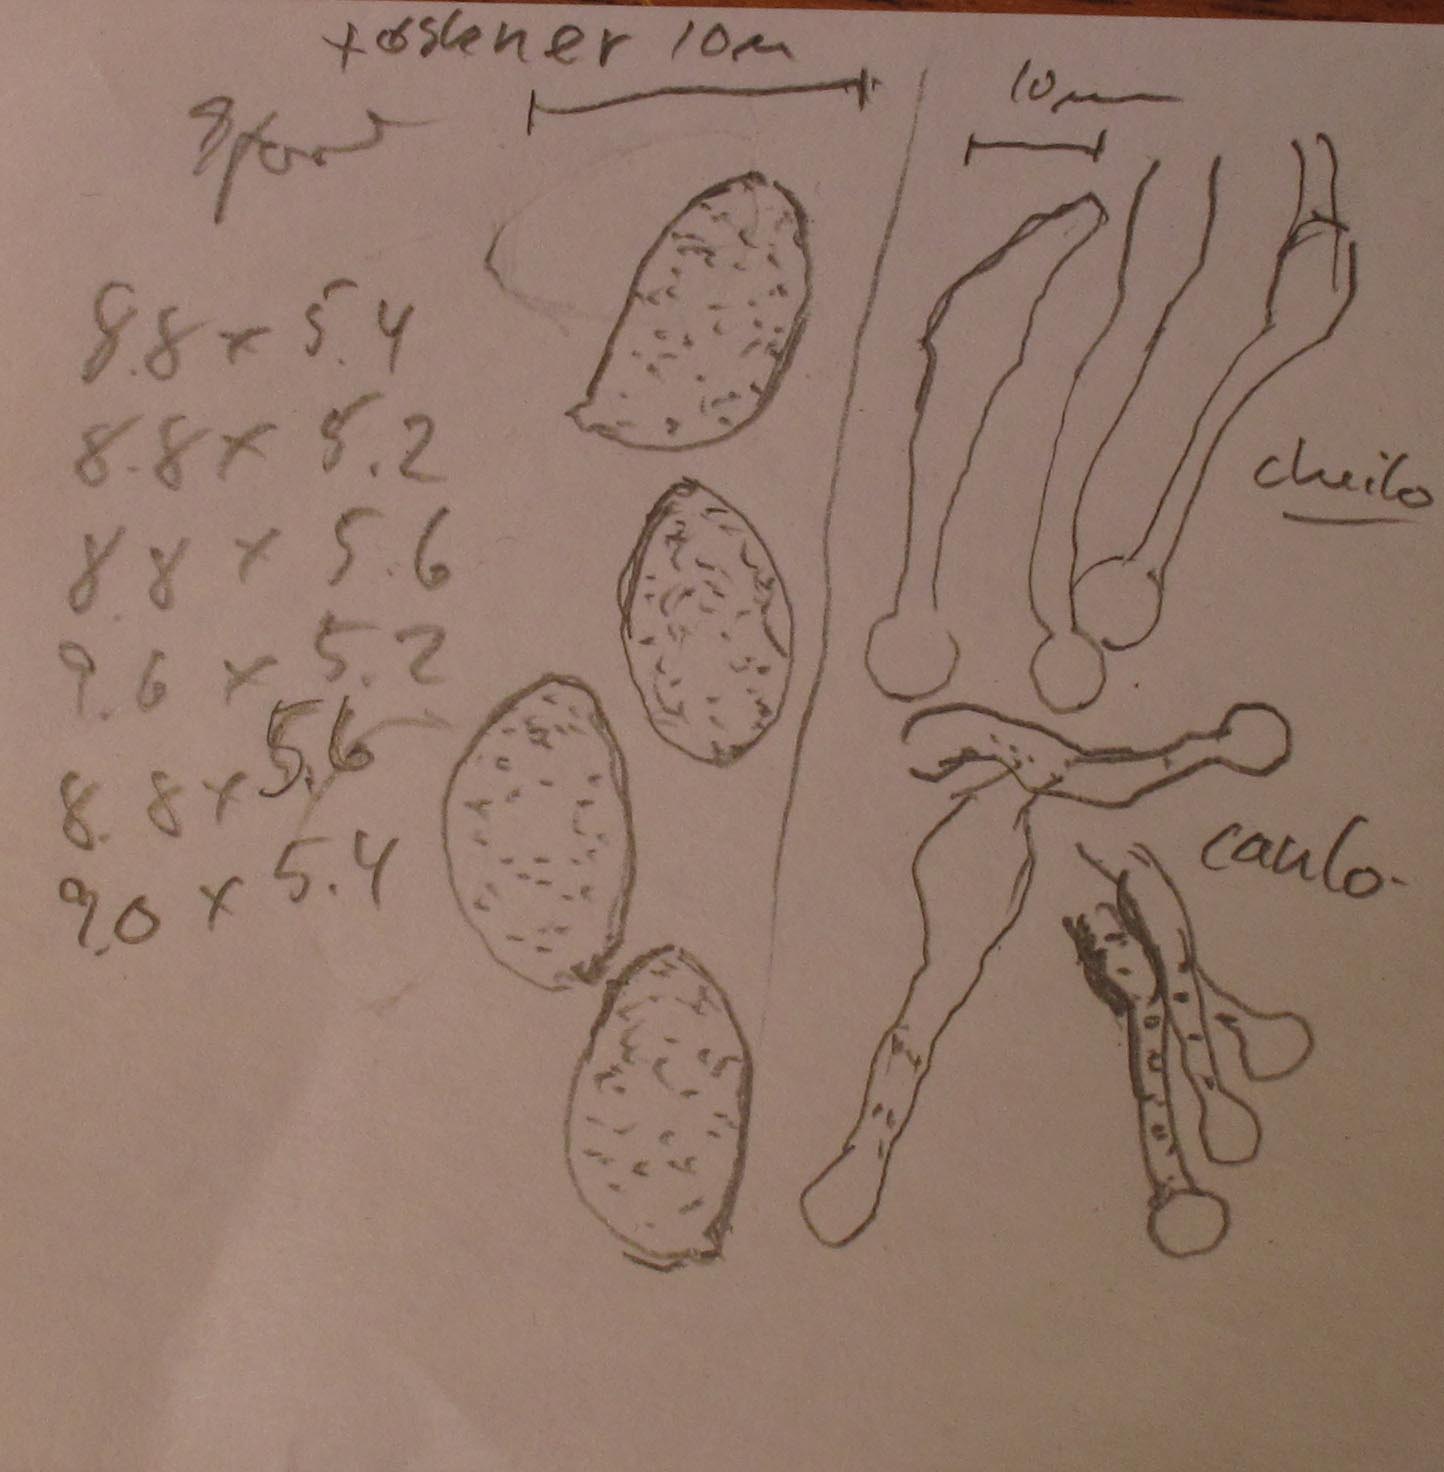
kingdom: Fungi
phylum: Basidiomycota
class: Agaricomycetes
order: Agaricales
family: Hymenogastraceae
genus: Galerina
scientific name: Galerina hybrida
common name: hængesæk-hjelmhat
